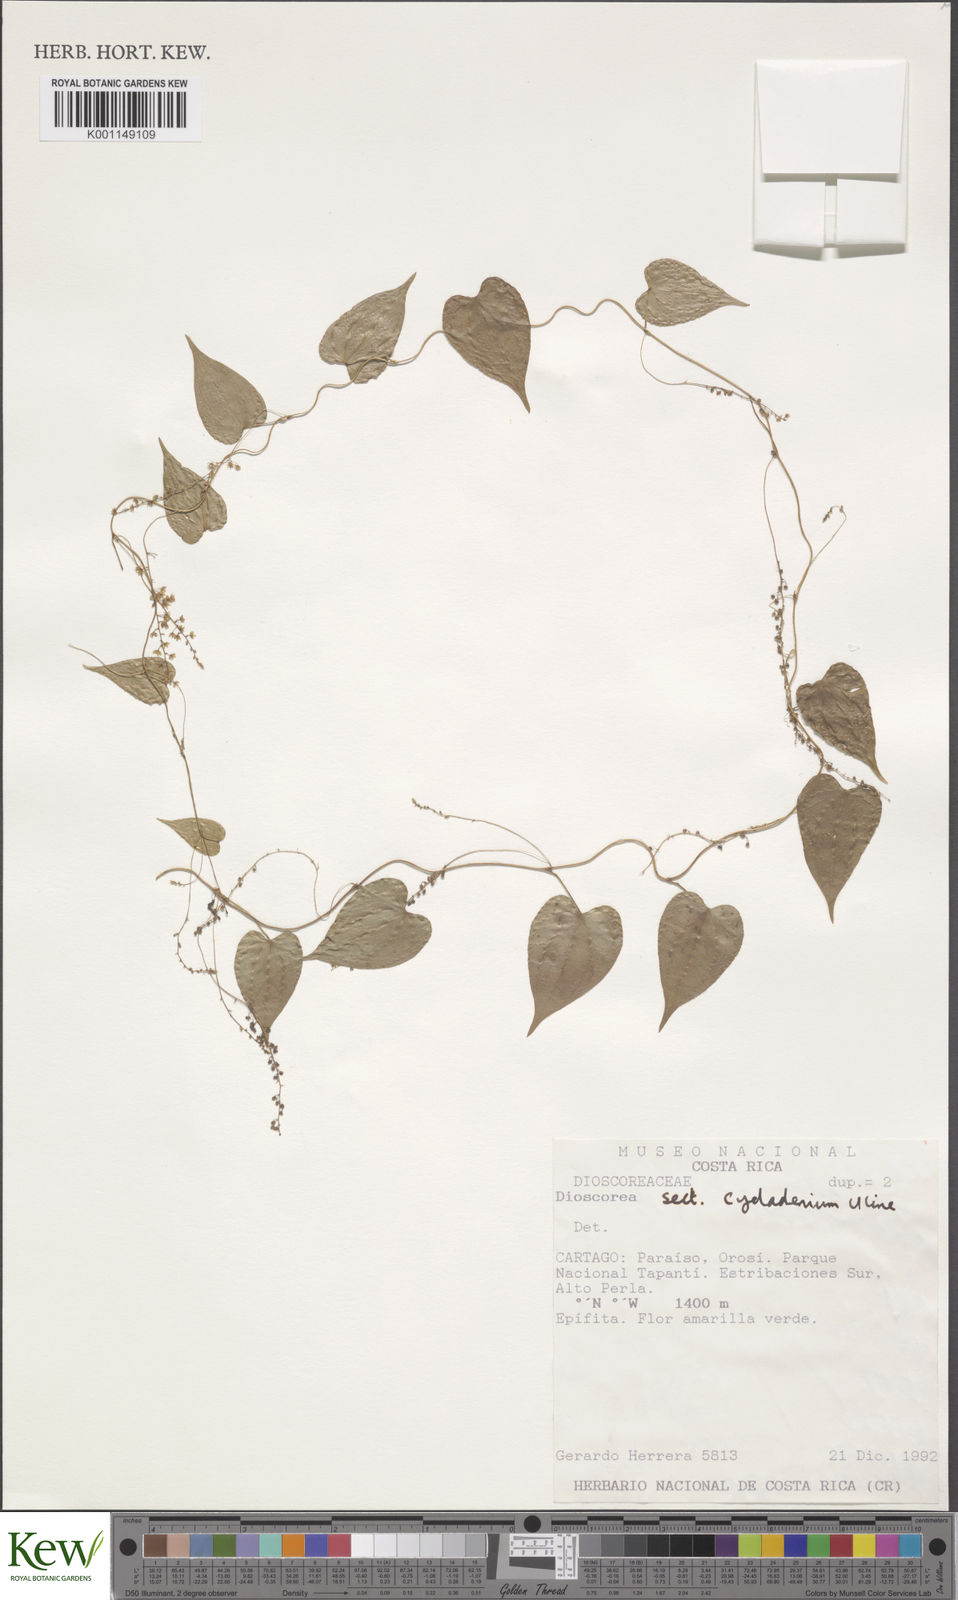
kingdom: Plantae
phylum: Tracheophyta
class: Liliopsida
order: Dioscoreales
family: Dioscoreaceae
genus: Dioscorea
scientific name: Dioscorea
